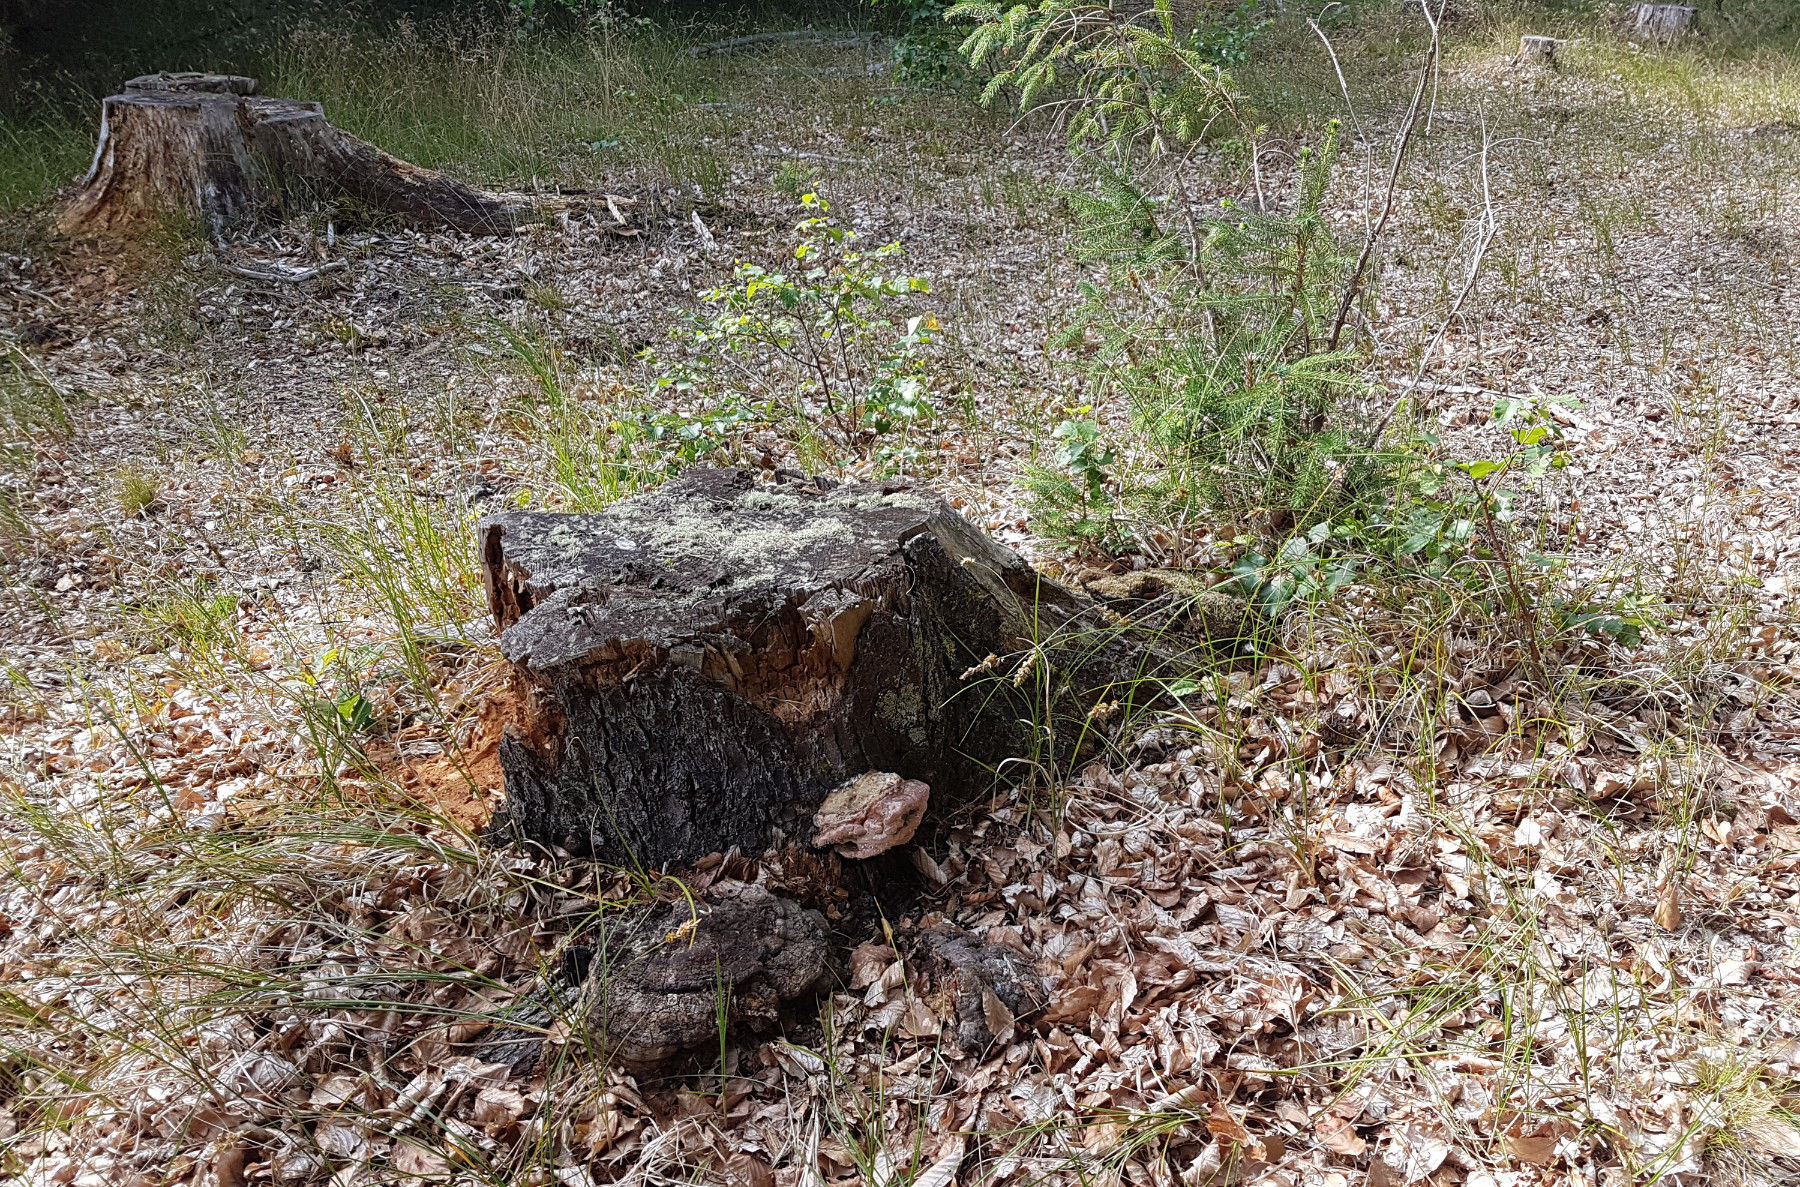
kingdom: Fungi
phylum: Basidiomycota
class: Agaricomycetes
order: Polyporales
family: Fomitopsidaceae
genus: Fomitopsis
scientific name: Fomitopsis pinicola
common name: randbæltet hovporesvamp
